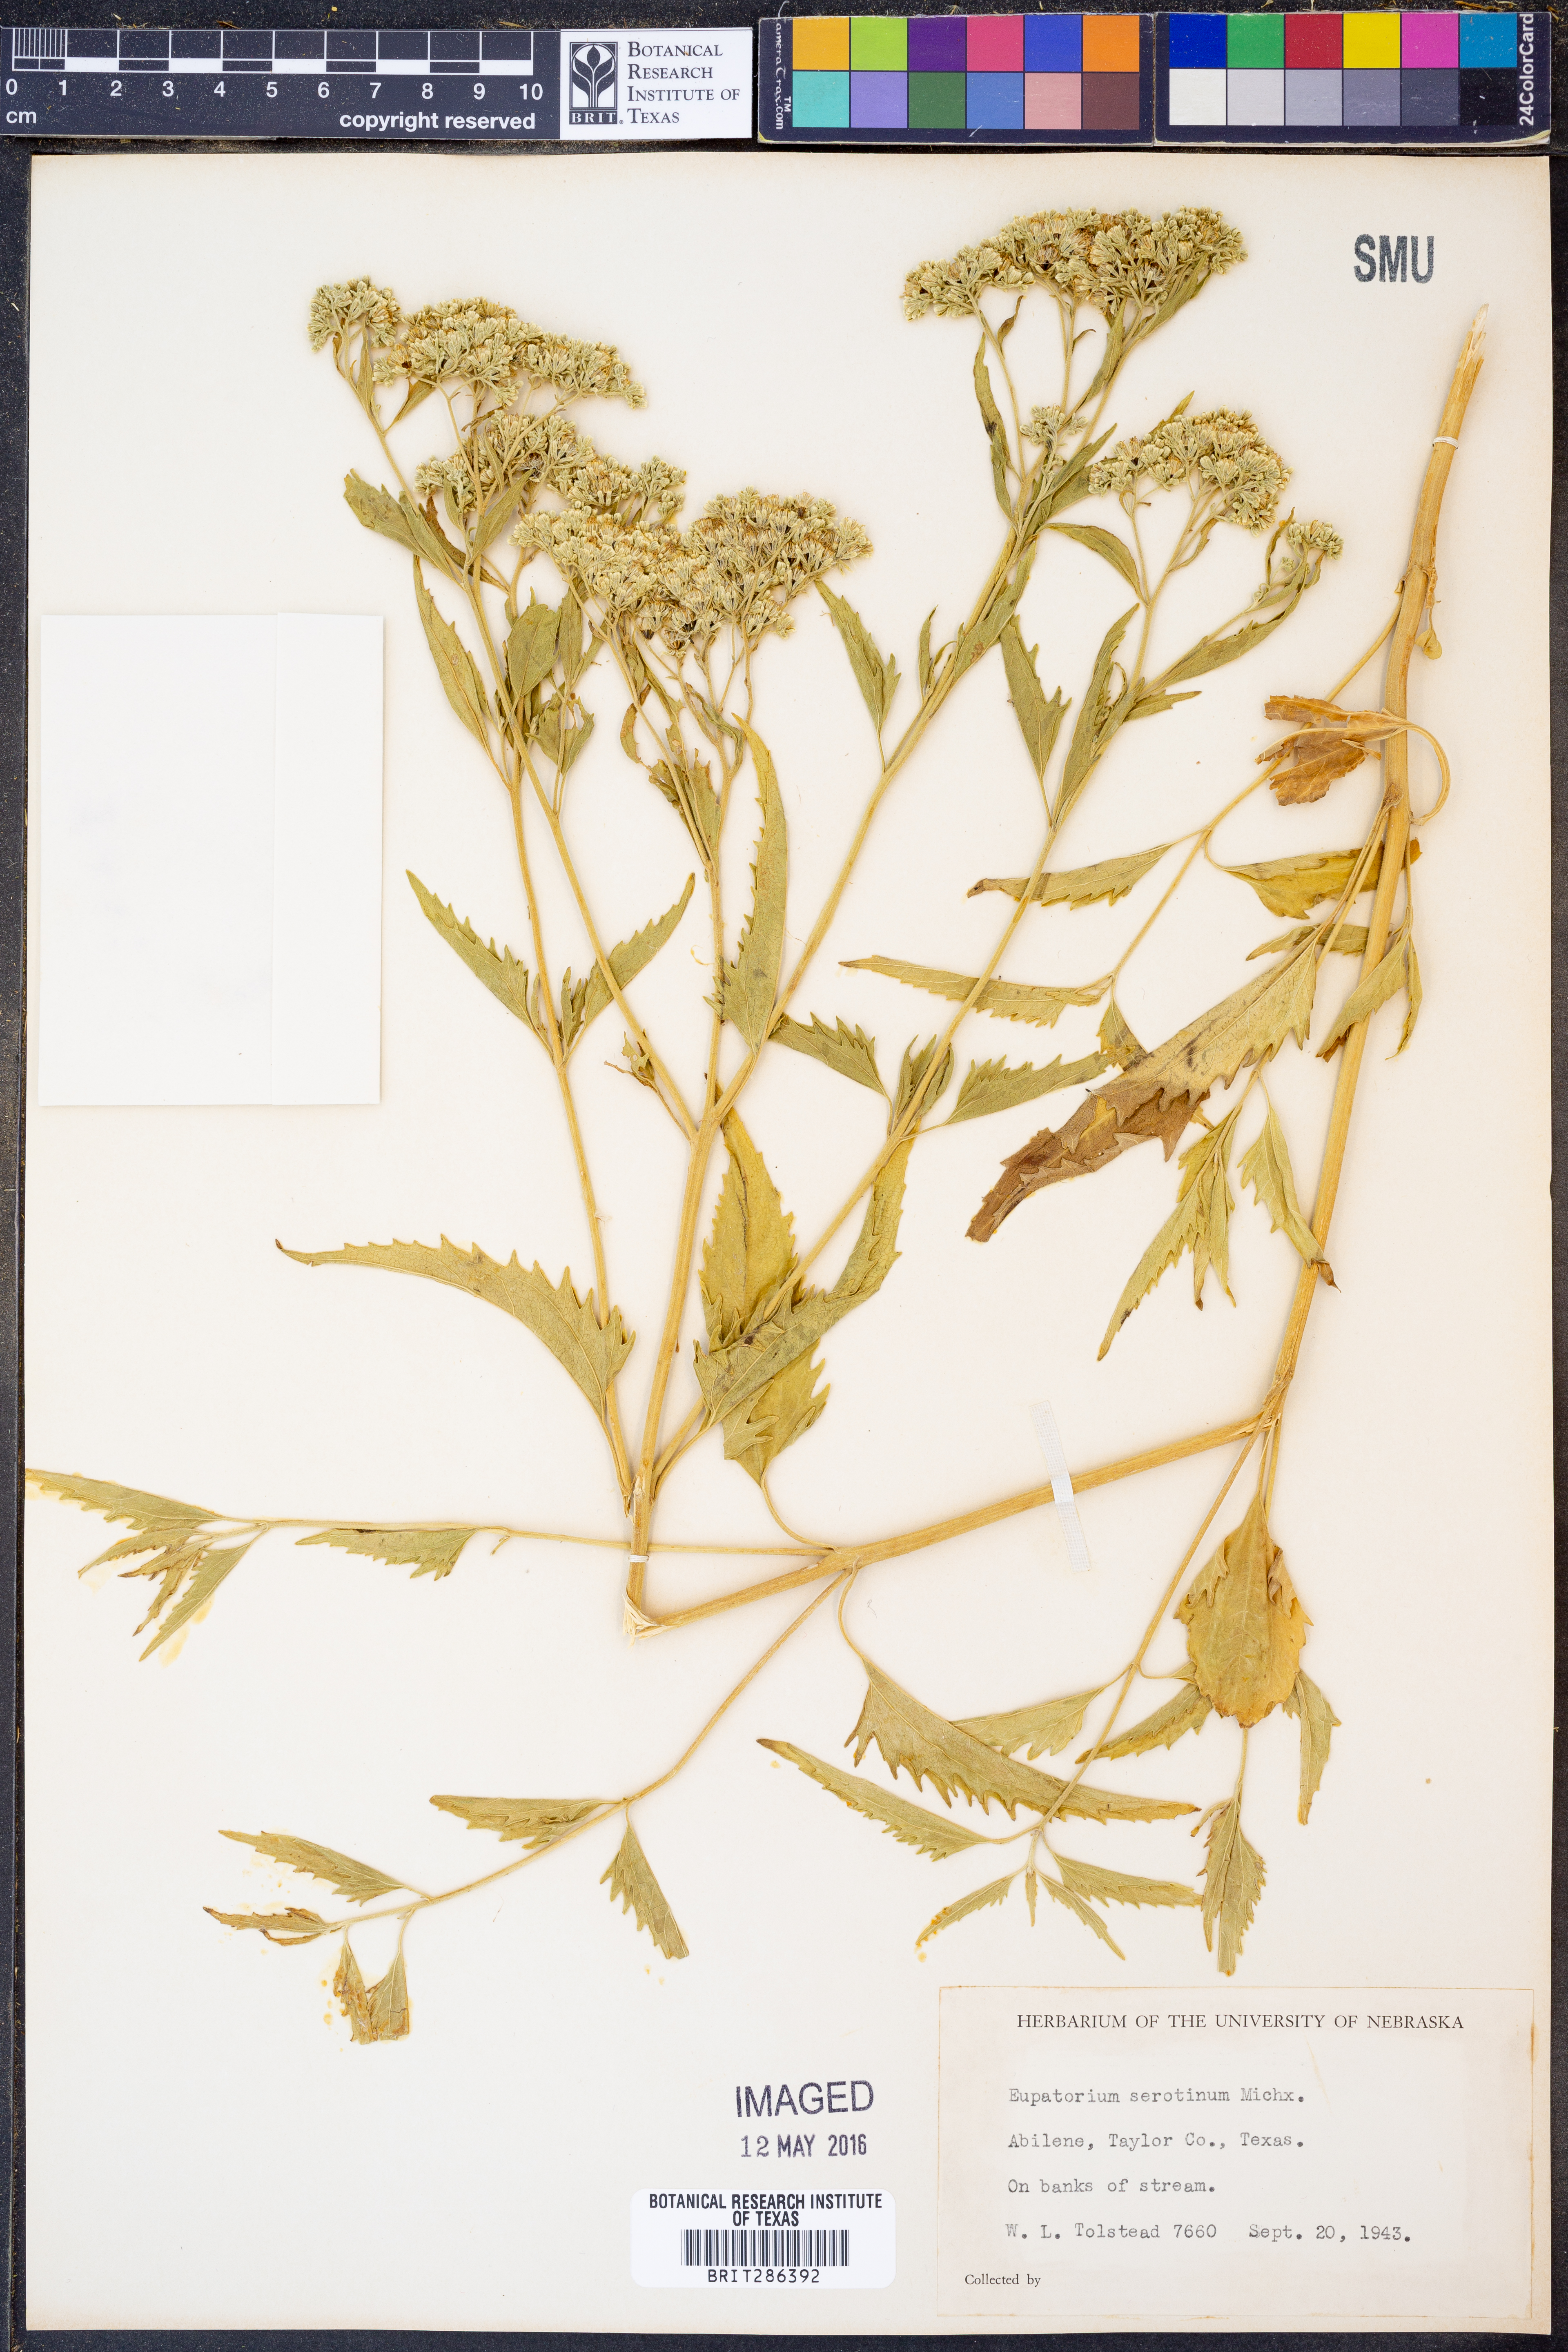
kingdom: Plantae
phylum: Tracheophyta
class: Magnoliopsida
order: Asterales
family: Asteraceae
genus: Eupatorium
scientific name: Eupatorium serotinum
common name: Late boneset
